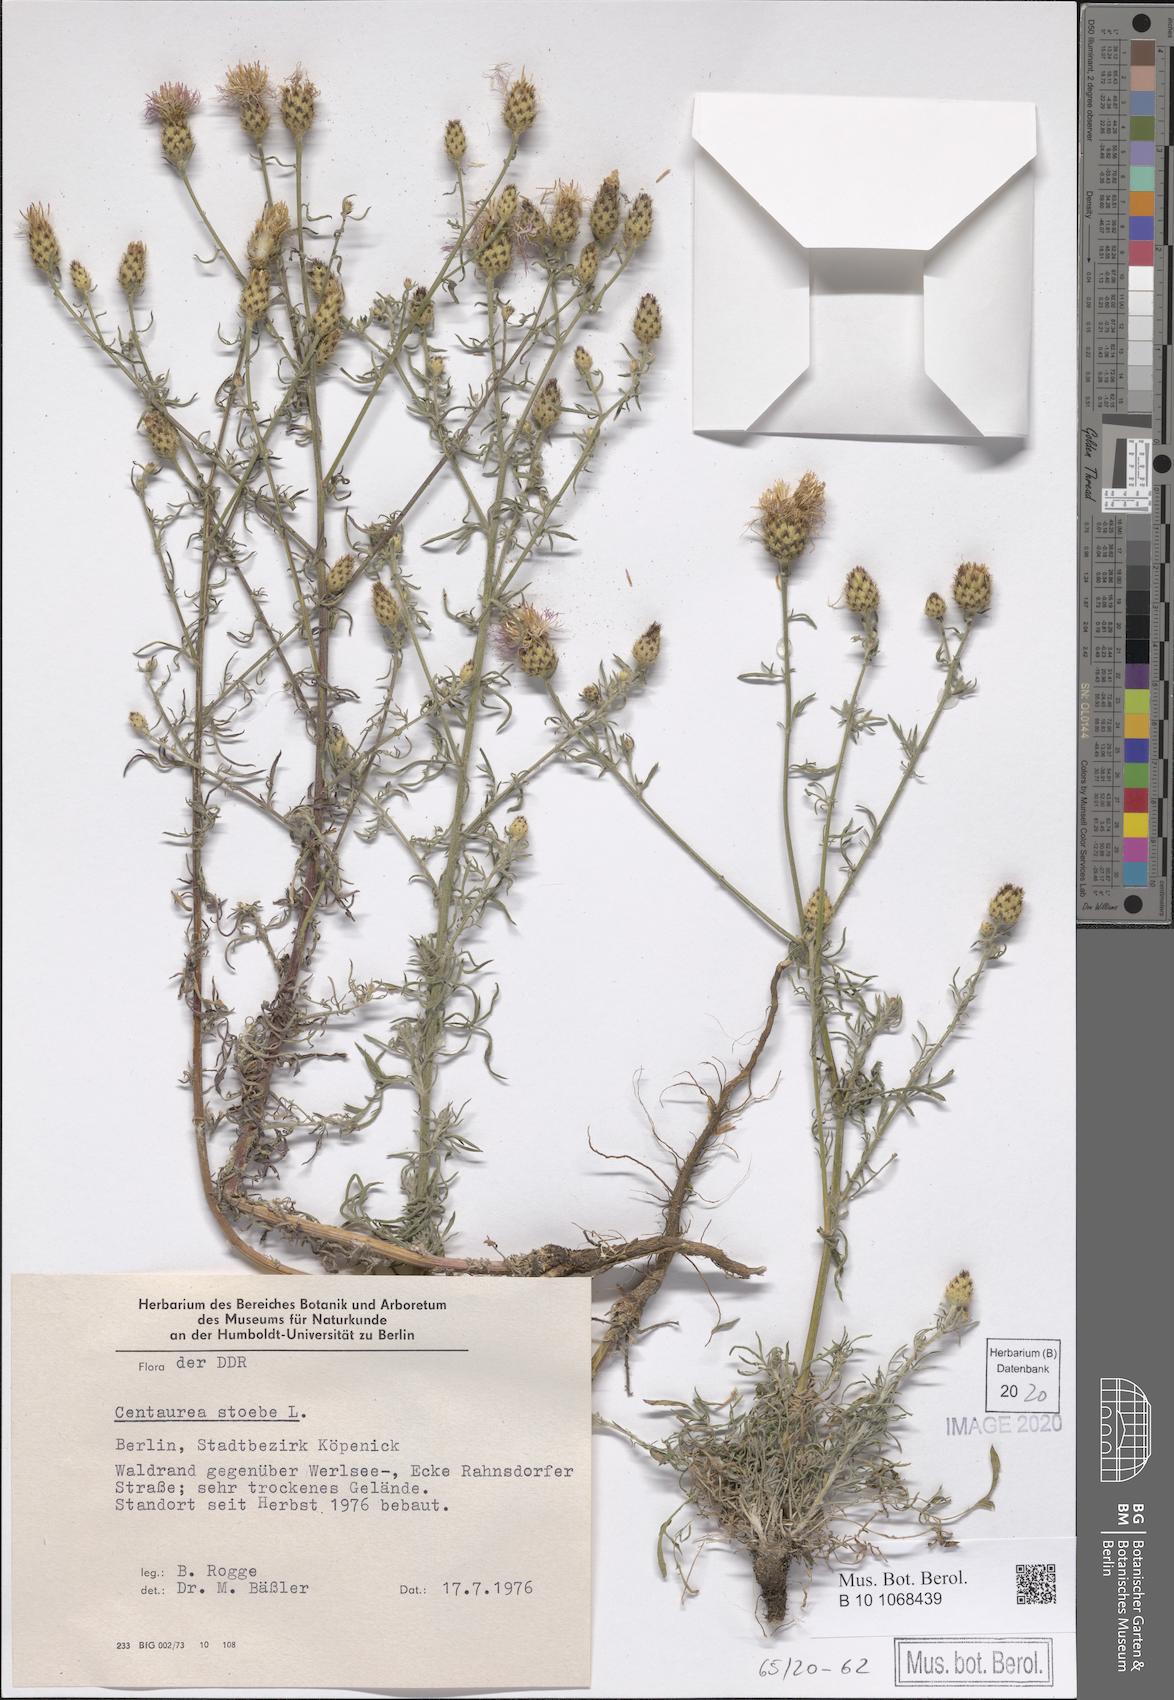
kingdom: Plantae
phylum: Tracheophyta
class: Magnoliopsida
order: Asterales
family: Asteraceae
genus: Centaurea
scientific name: Centaurea stoebe
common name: Spotted knapweed
